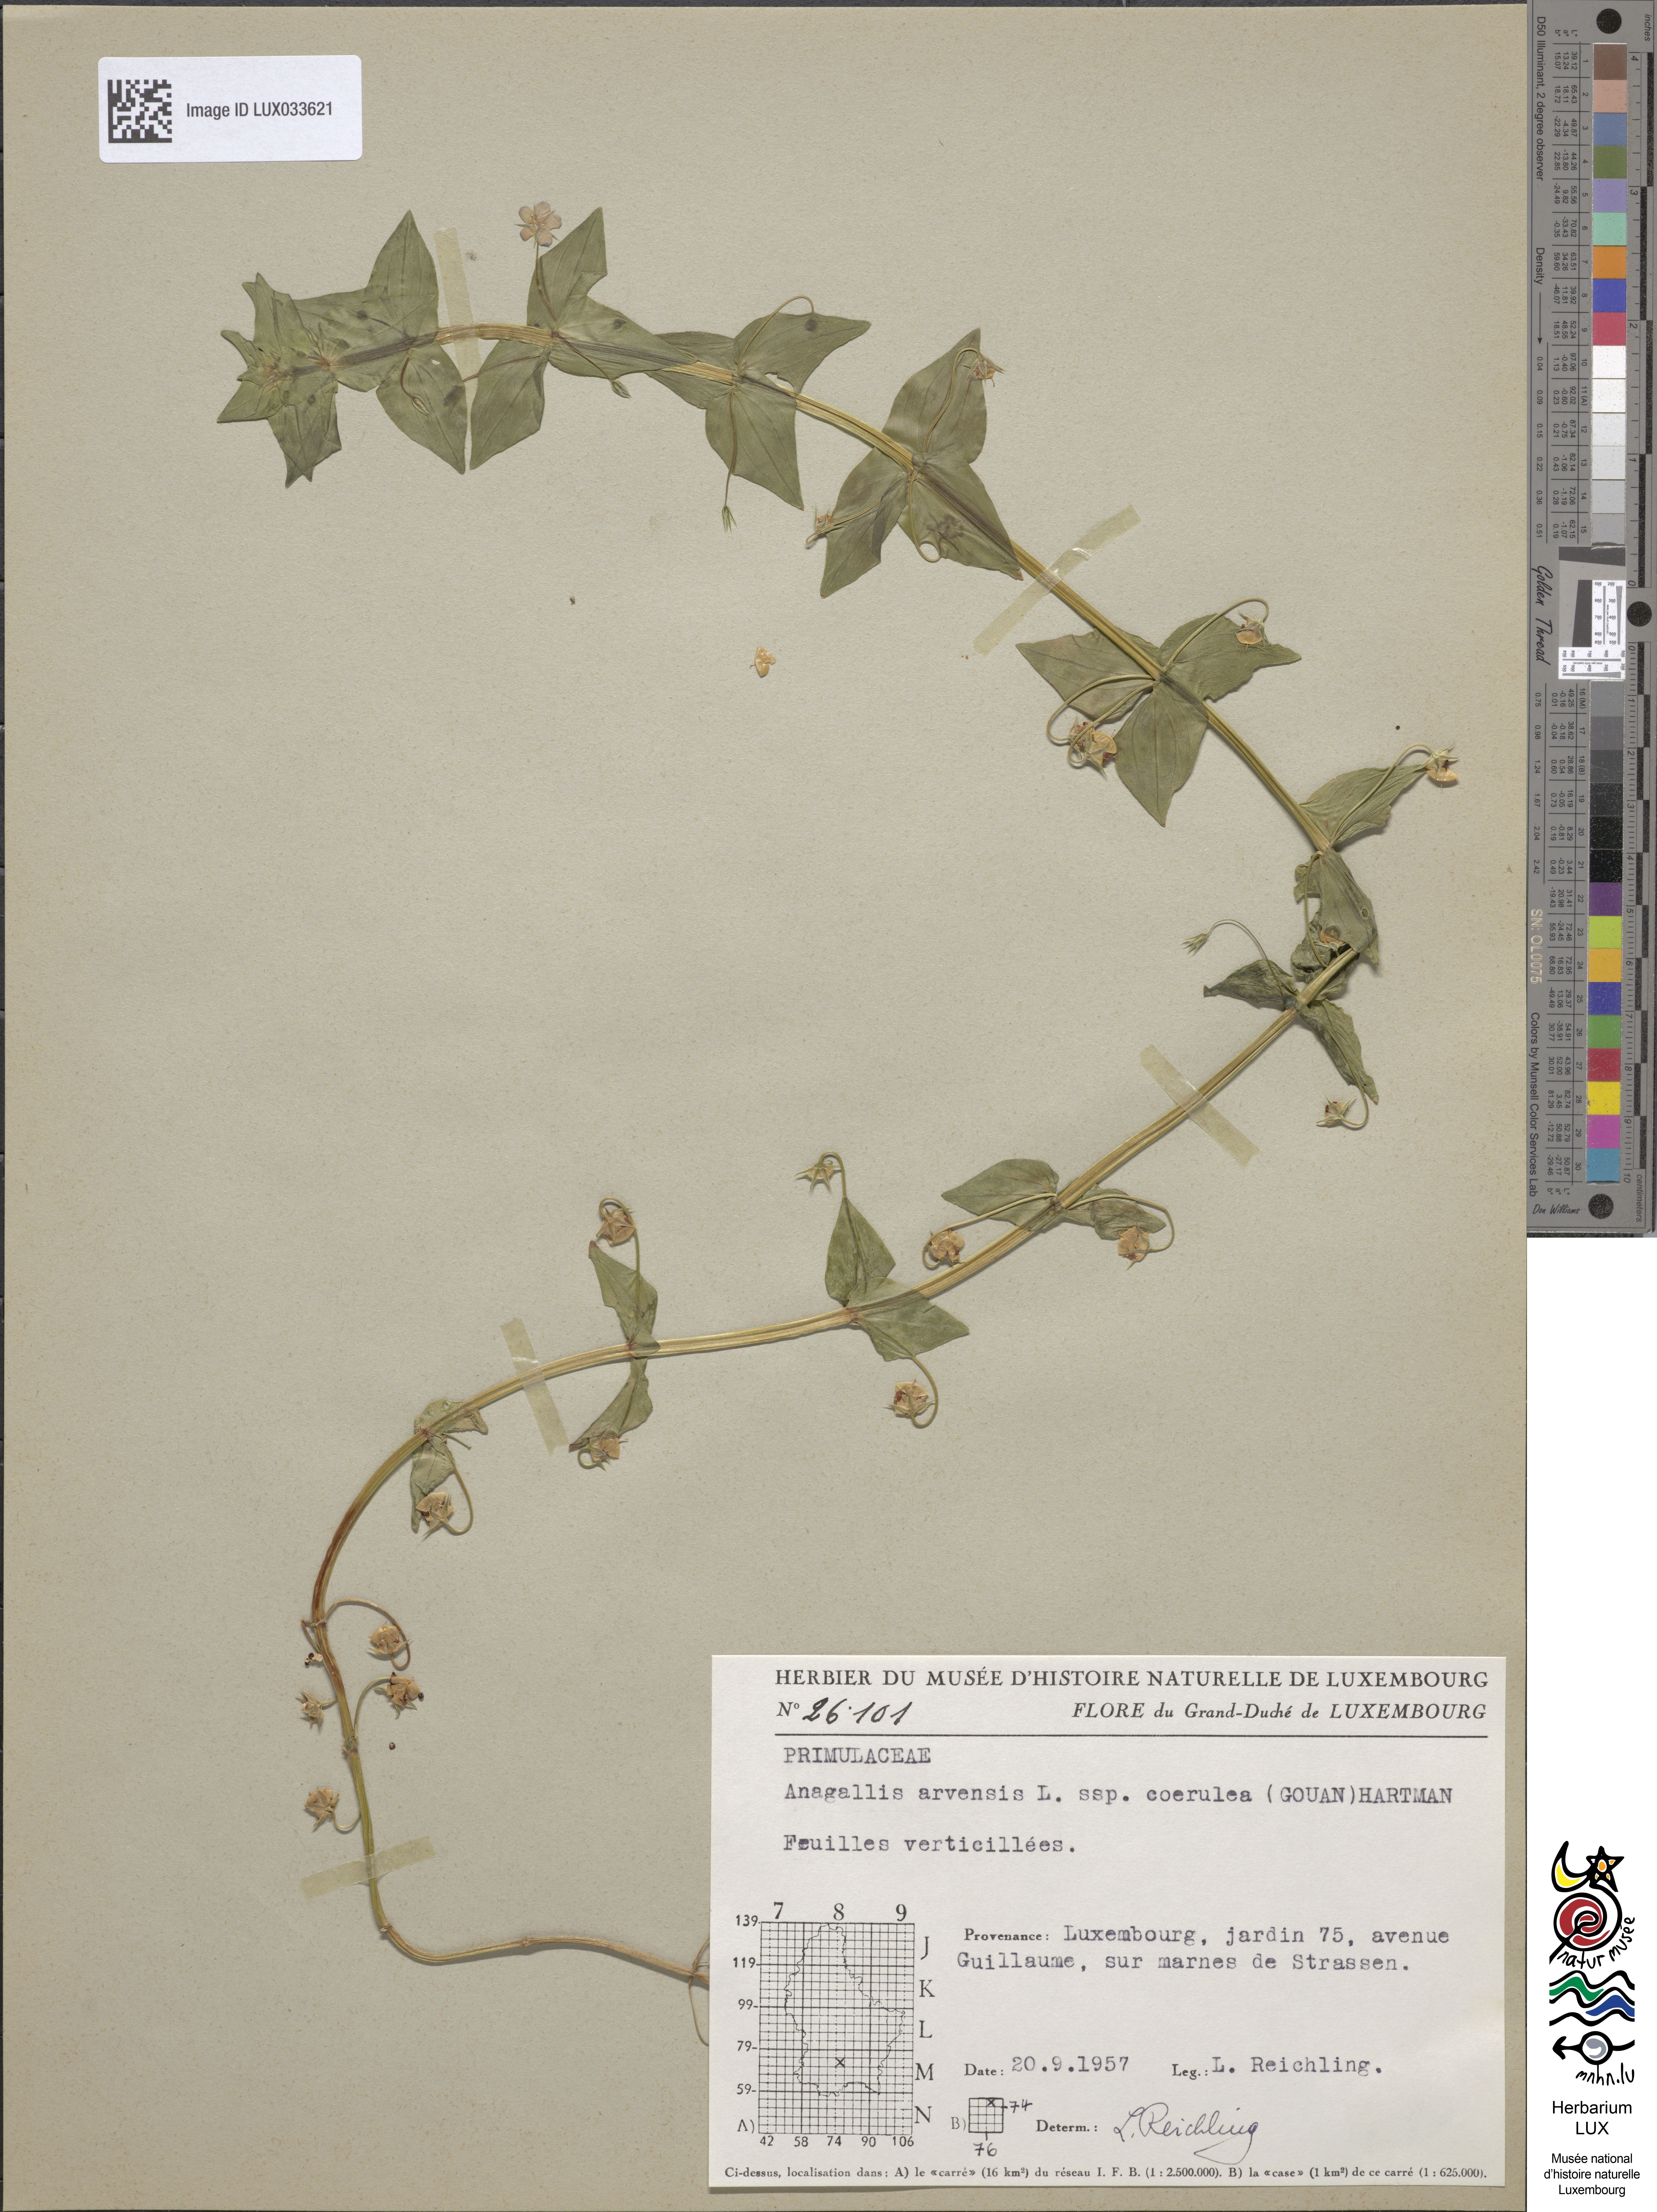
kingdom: Plantae
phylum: Tracheophyta
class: Magnoliopsida
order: Ericales
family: Primulaceae
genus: Lysimachia
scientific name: Lysimachia foemina
